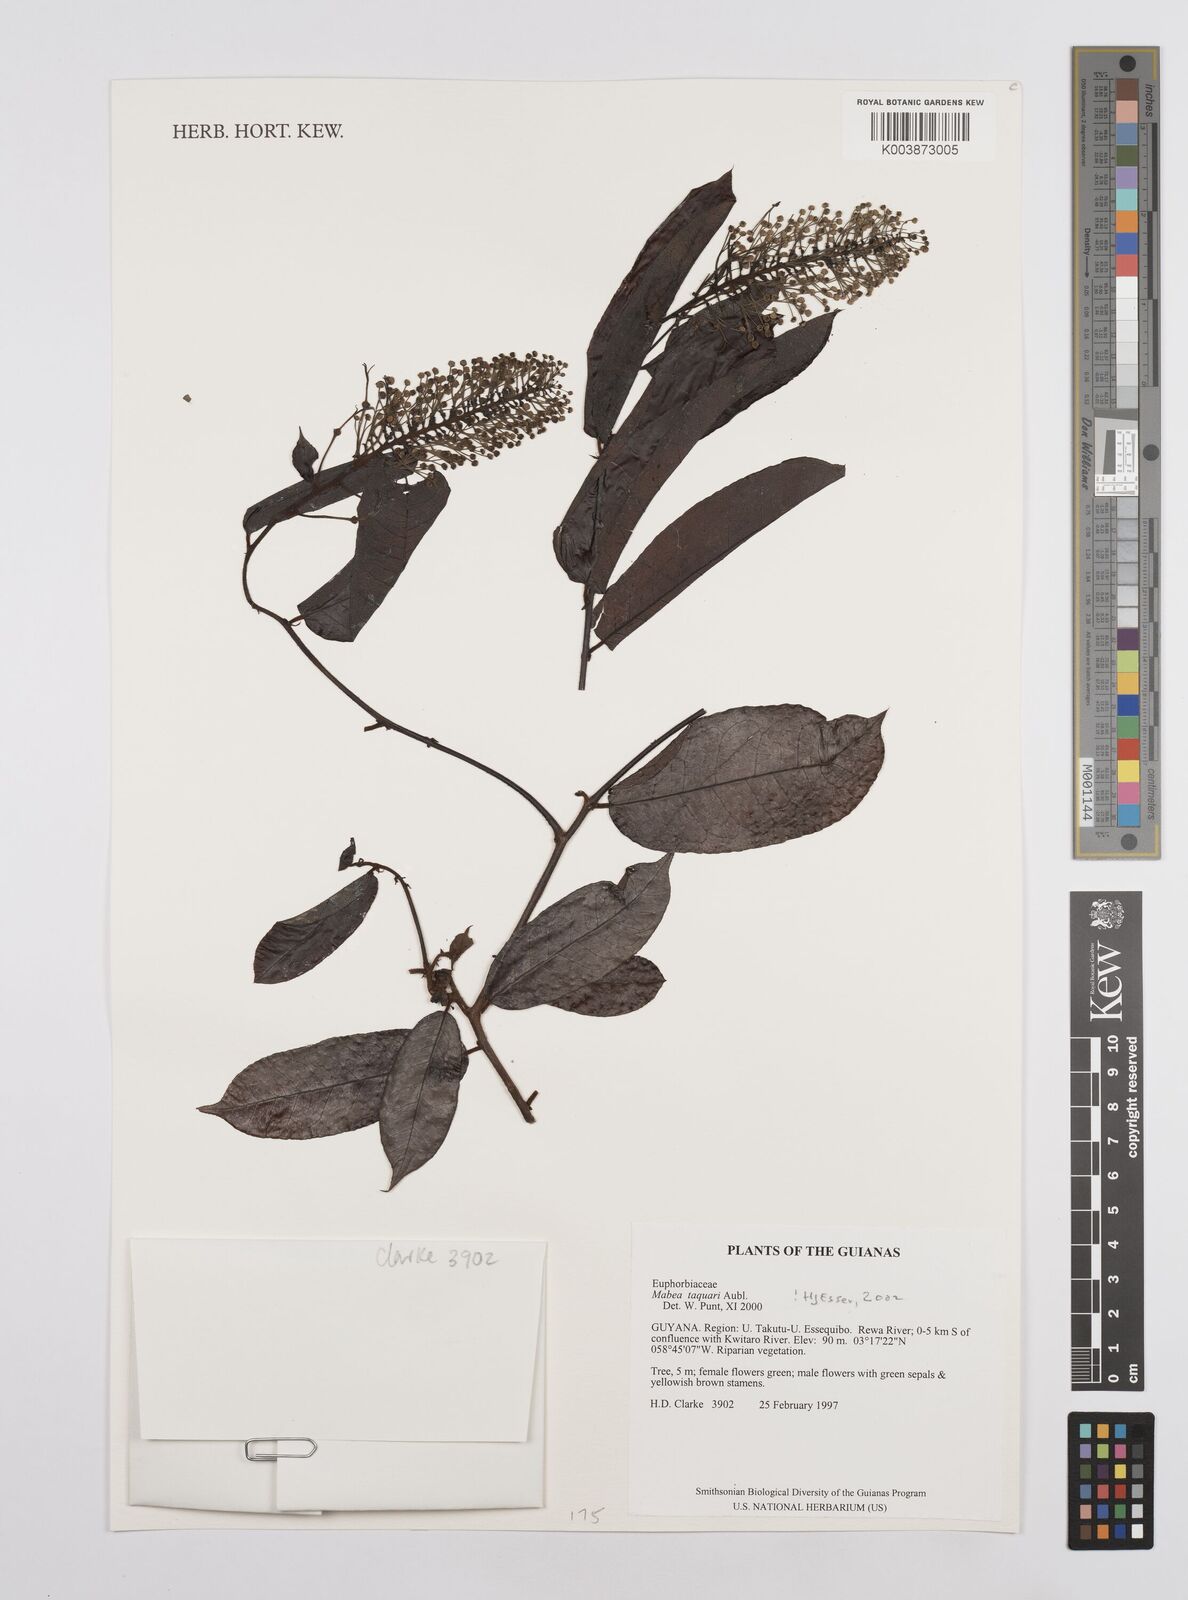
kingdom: Plantae
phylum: Tracheophyta
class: Magnoliopsida
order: Malpighiales
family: Euphorbiaceae
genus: Mabea
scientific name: Mabea taquari
